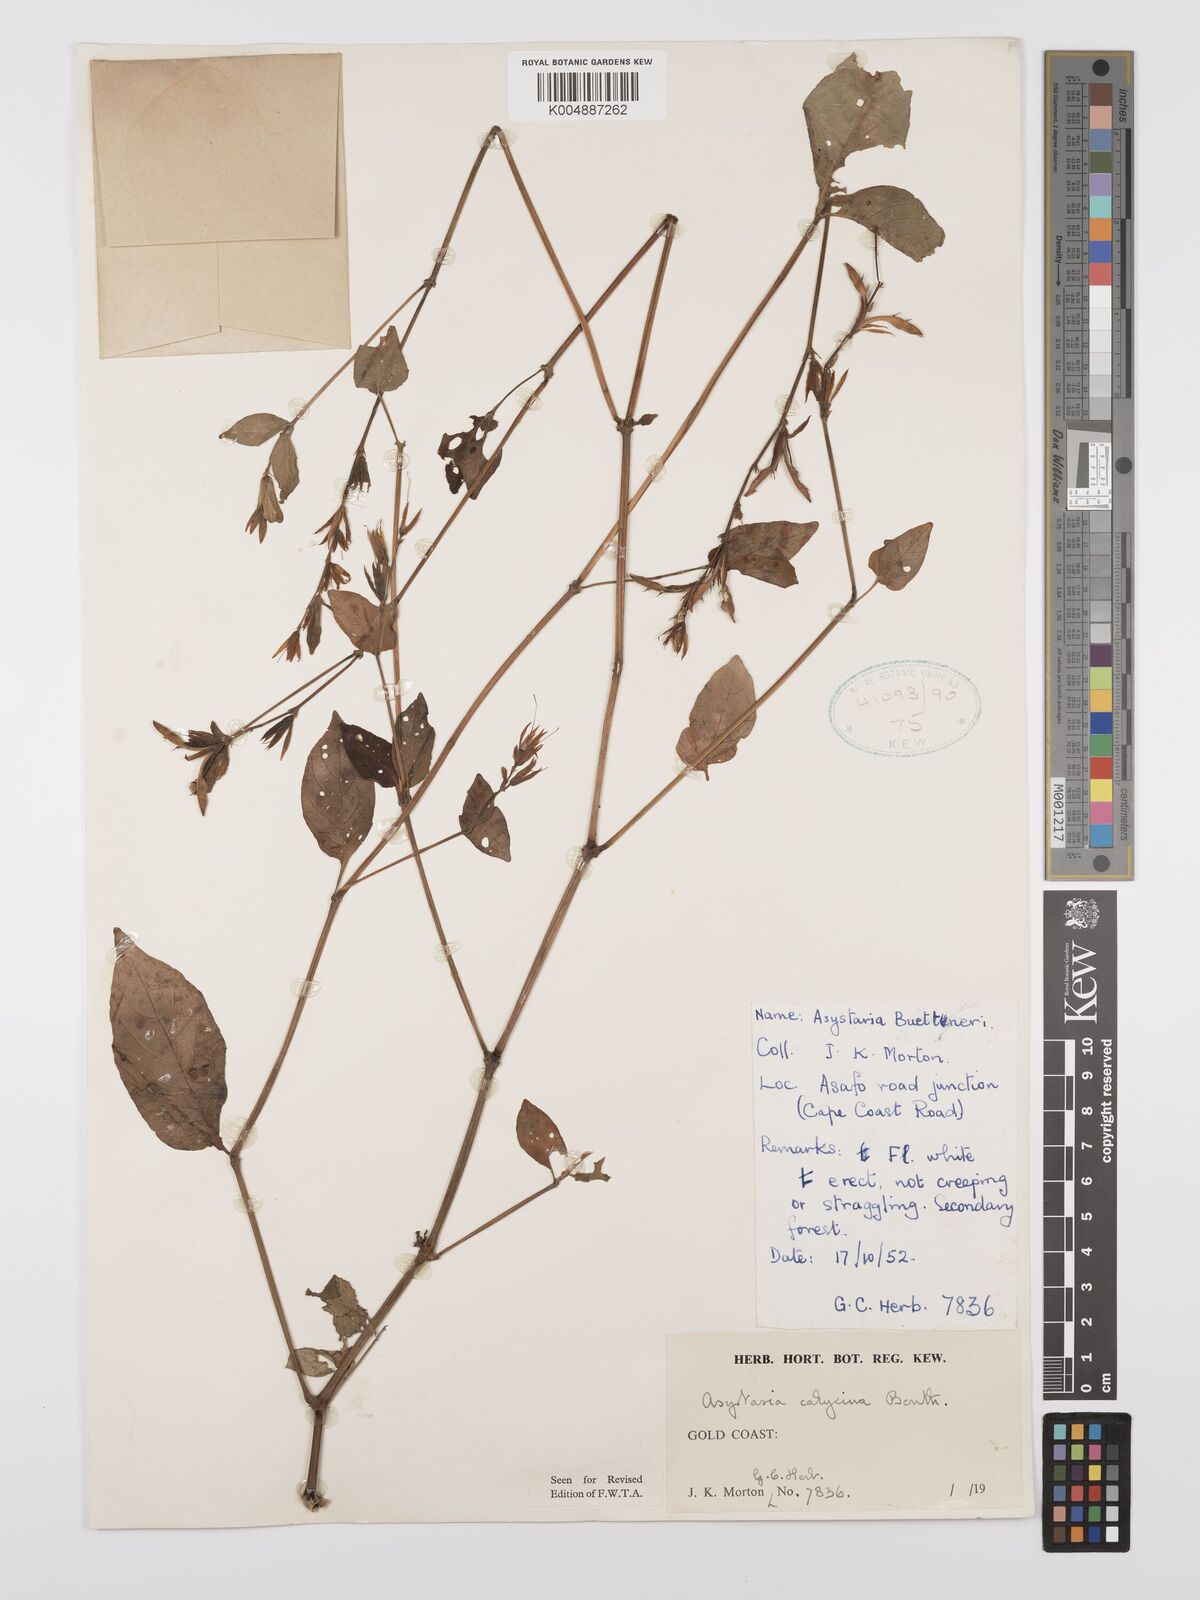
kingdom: Plantae
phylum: Tracheophyta
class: Magnoliopsida
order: Lamiales
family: Acanthaceae
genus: Asystasia
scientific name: Asystasia
